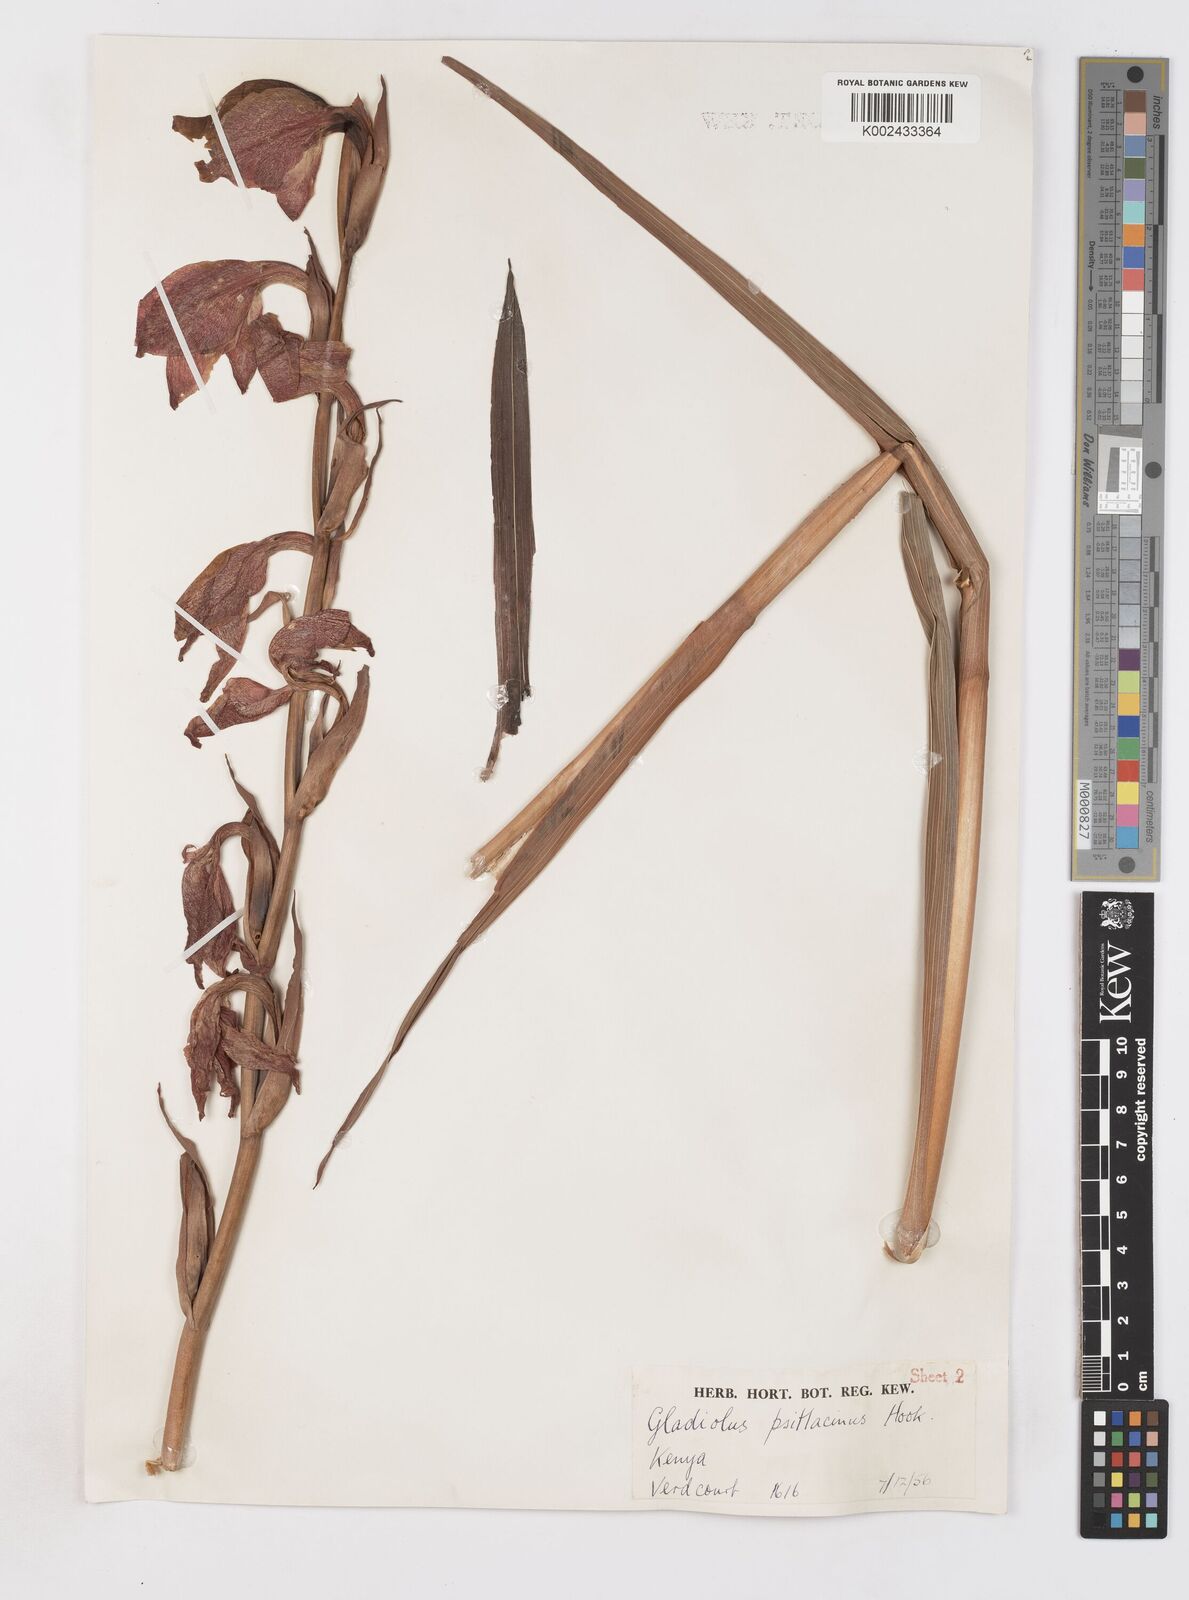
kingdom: Plantae
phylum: Tracheophyta
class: Liliopsida
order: Asparagales
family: Iridaceae
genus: Gladiolus
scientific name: Gladiolus dalenii
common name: Cornflag
